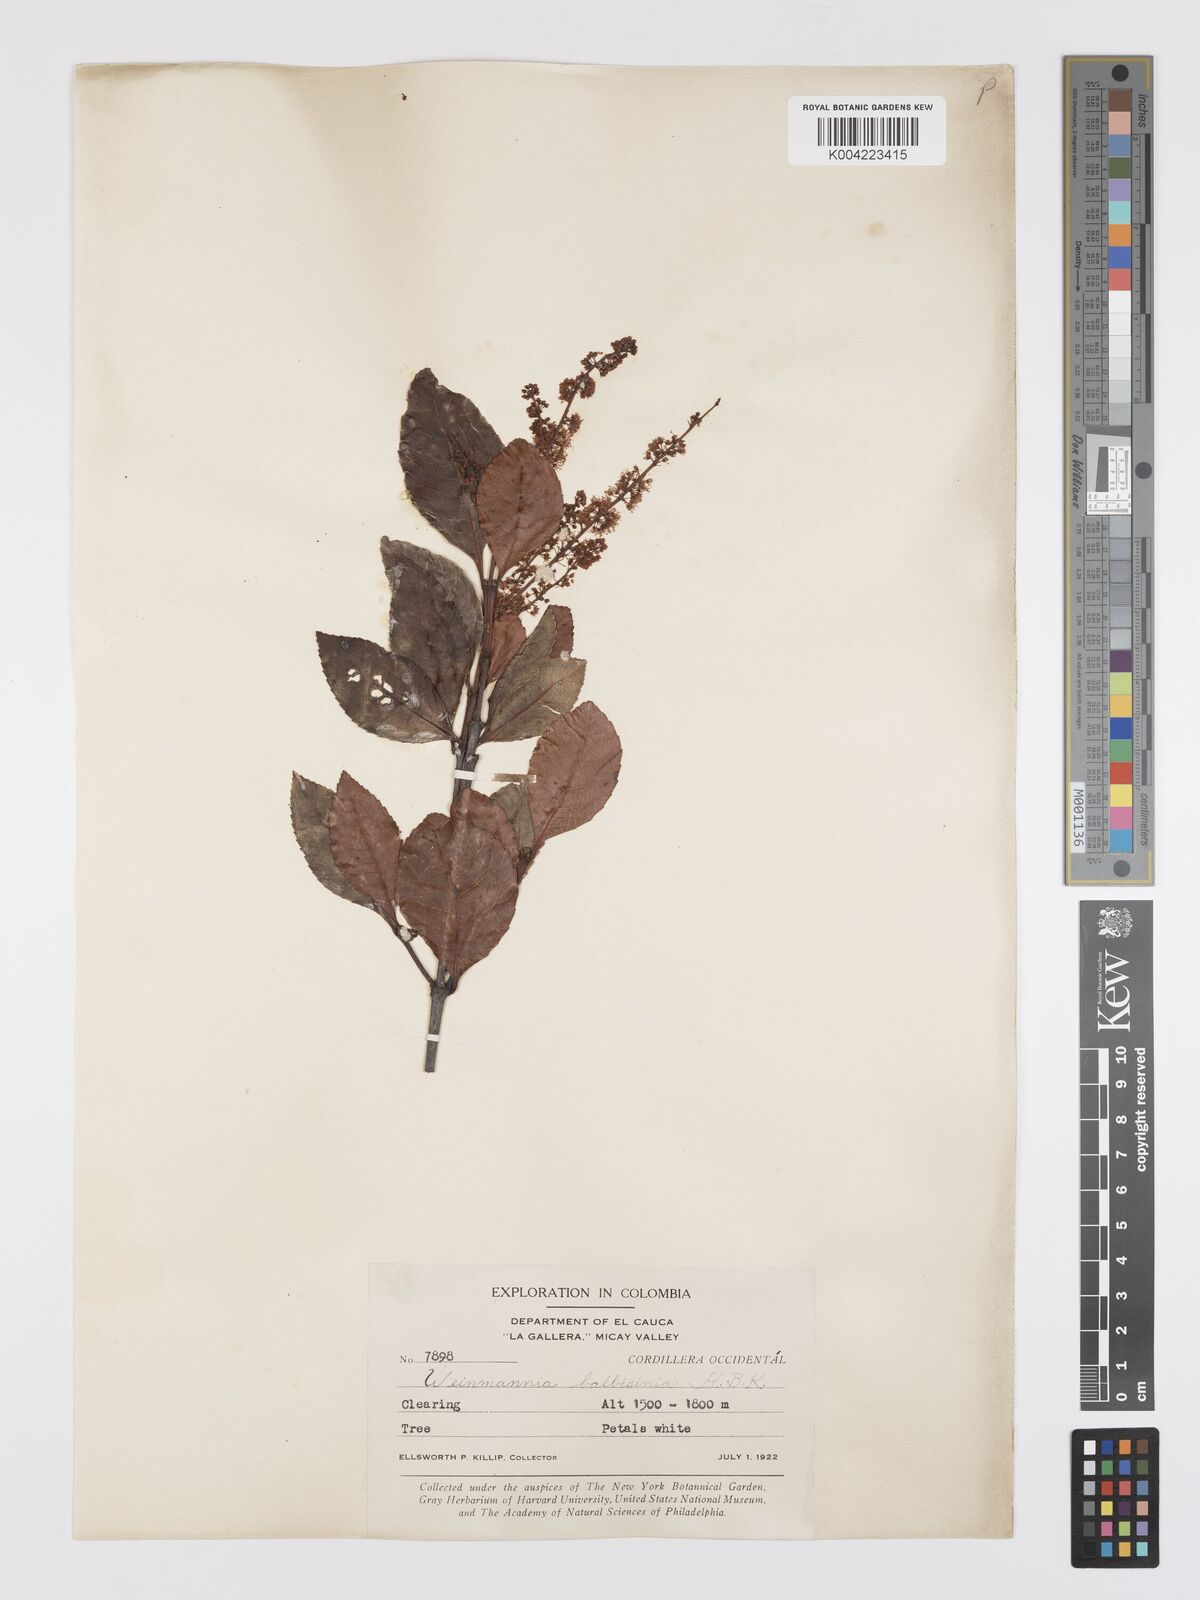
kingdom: Plantae
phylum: Tracheophyta
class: Magnoliopsida
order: Oxalidales
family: Cunoniaceae
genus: Weinmannia
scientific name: Weinmannia balbisana
